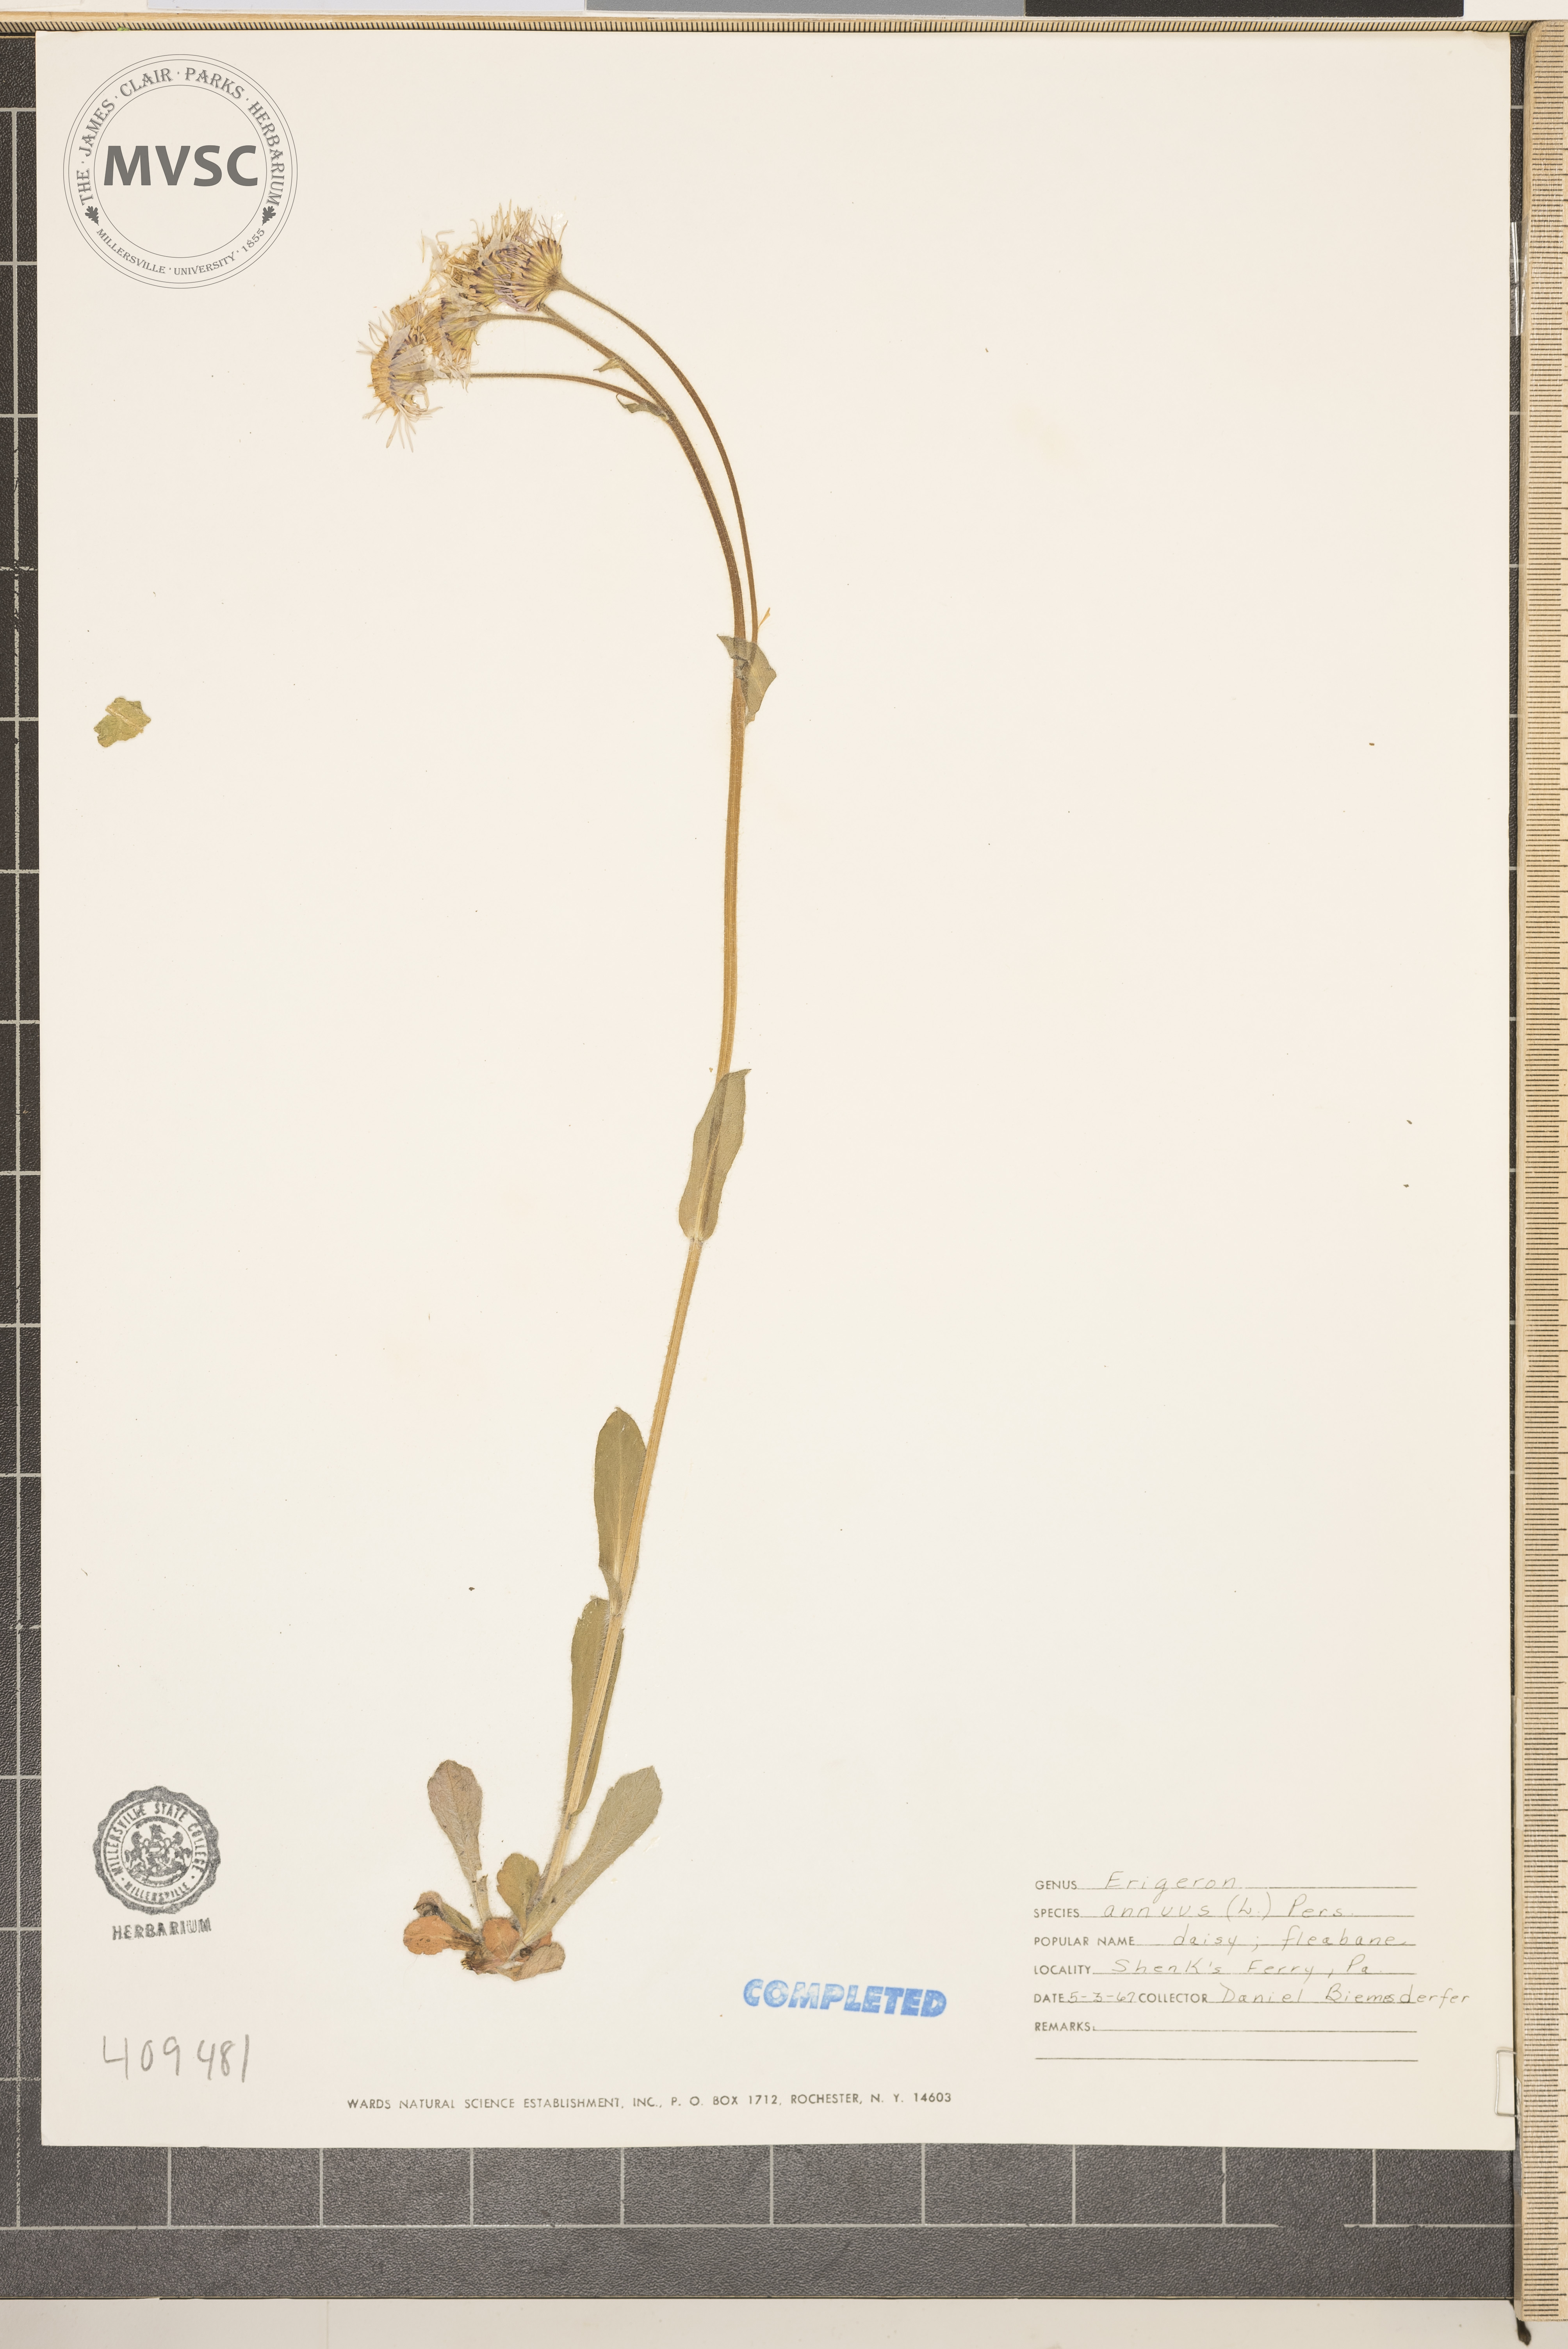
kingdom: Plantae
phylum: Tracheophyta
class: Magnoliopsida
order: Asterales
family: Asteraceae
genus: Erigeron
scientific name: Erigeron annuus
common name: Tall fleabane
